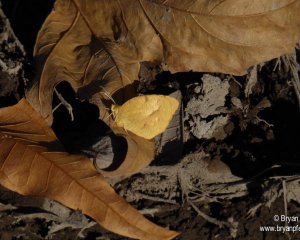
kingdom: Animalia
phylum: Arthropoda
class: Insecta
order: Lepidoptera
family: Pieridae
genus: Abaeis
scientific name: Abaeis nicippe
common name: Sleepy Orange
